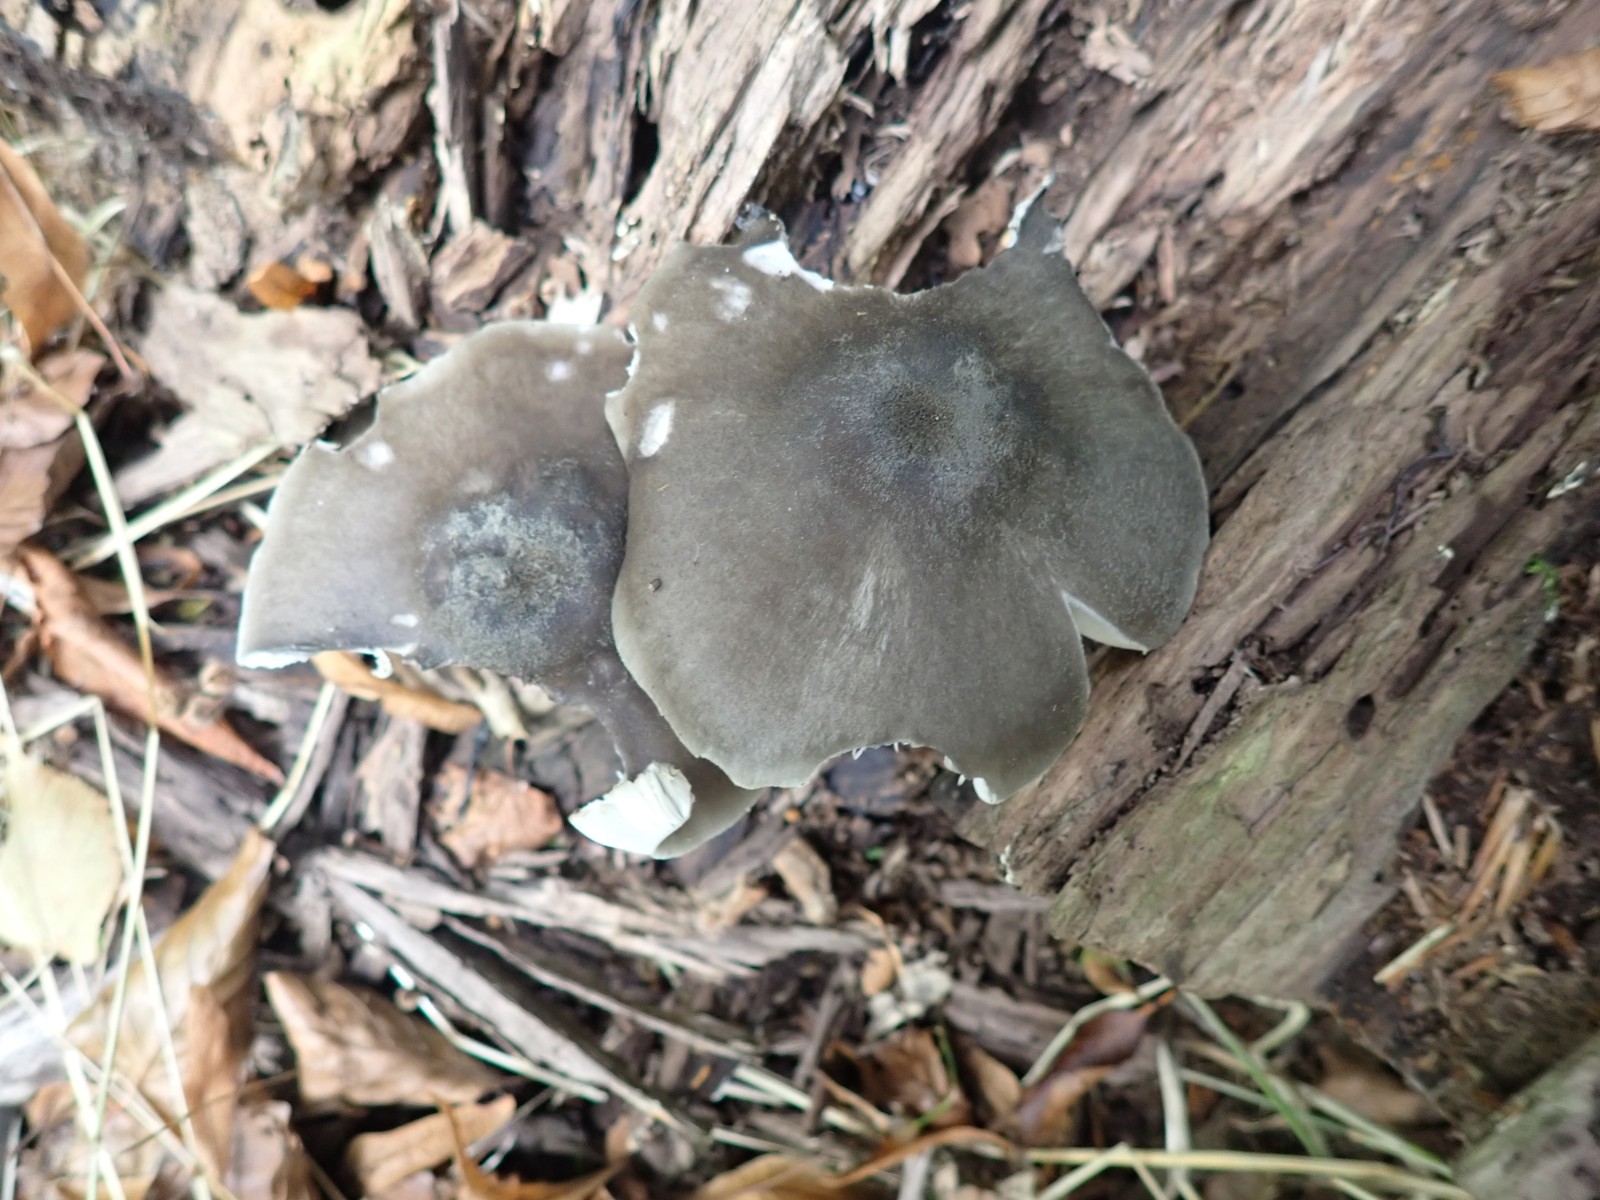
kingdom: Fungi
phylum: Basidiomycota
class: Agaricomycetes
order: Agaricales
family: Pluteaceae
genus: Pluteus
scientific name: Pluteus salicinus
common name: stiv skærmhat
